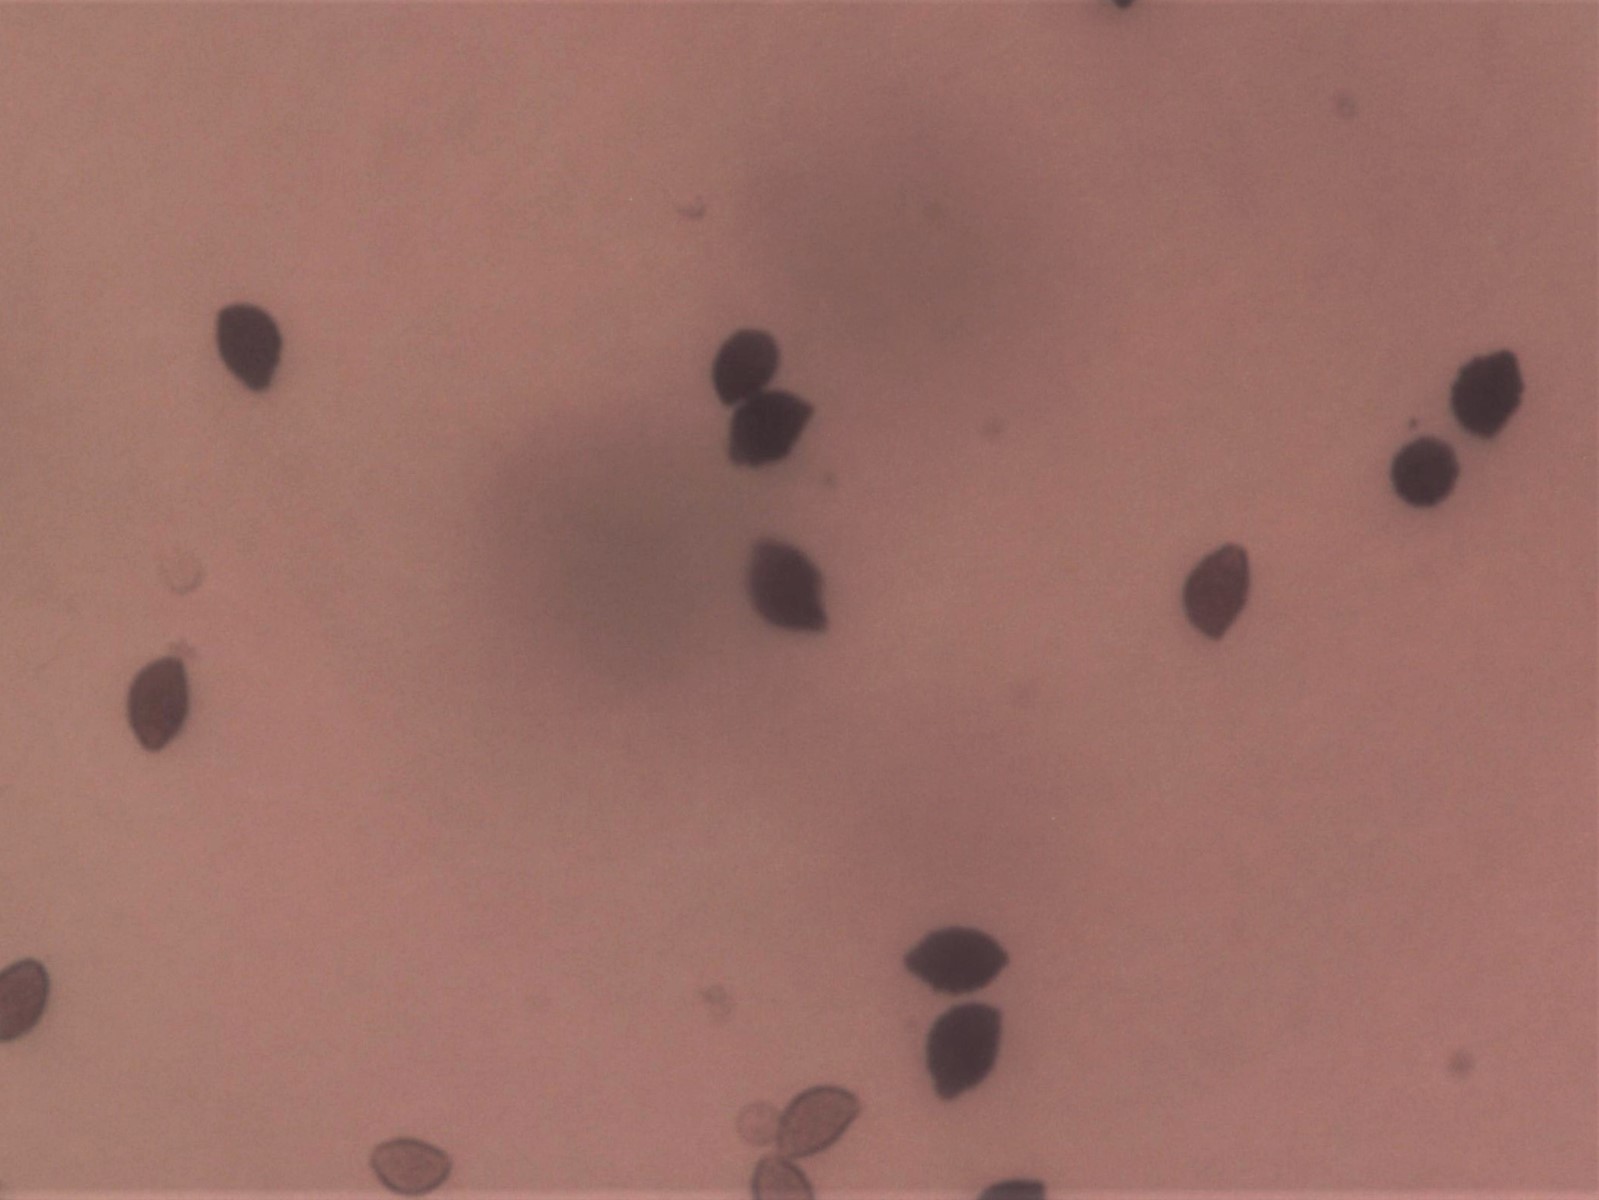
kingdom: Fungi
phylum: Basidiomycota
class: Agaricomycetes
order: Agaricales
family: Psathyrellaceae
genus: Lacrymaria
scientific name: Lacrymaria pyrotricha
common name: ildhåret mørkhat
